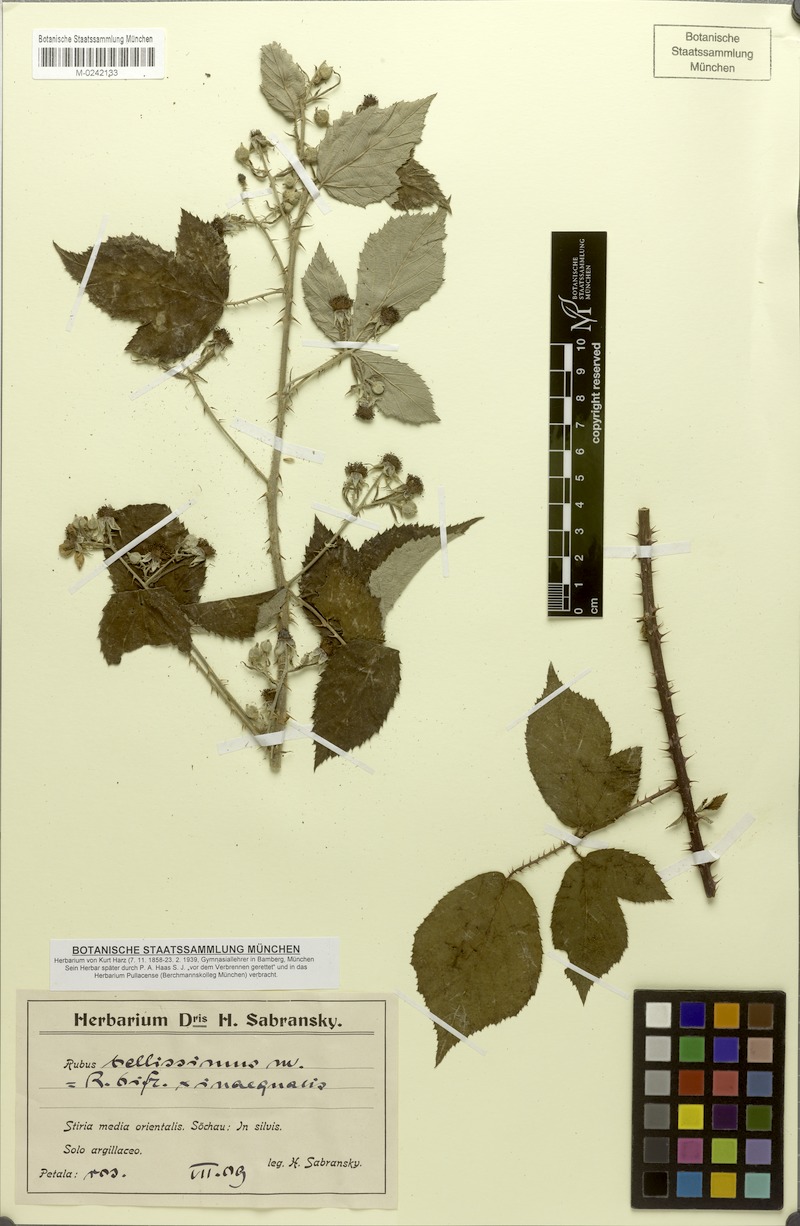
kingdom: Plantae
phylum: Tracheophyta
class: Magnoliopsida
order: Rosales
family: Rosaceae
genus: Rubus
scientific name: Rubus bellissimus
